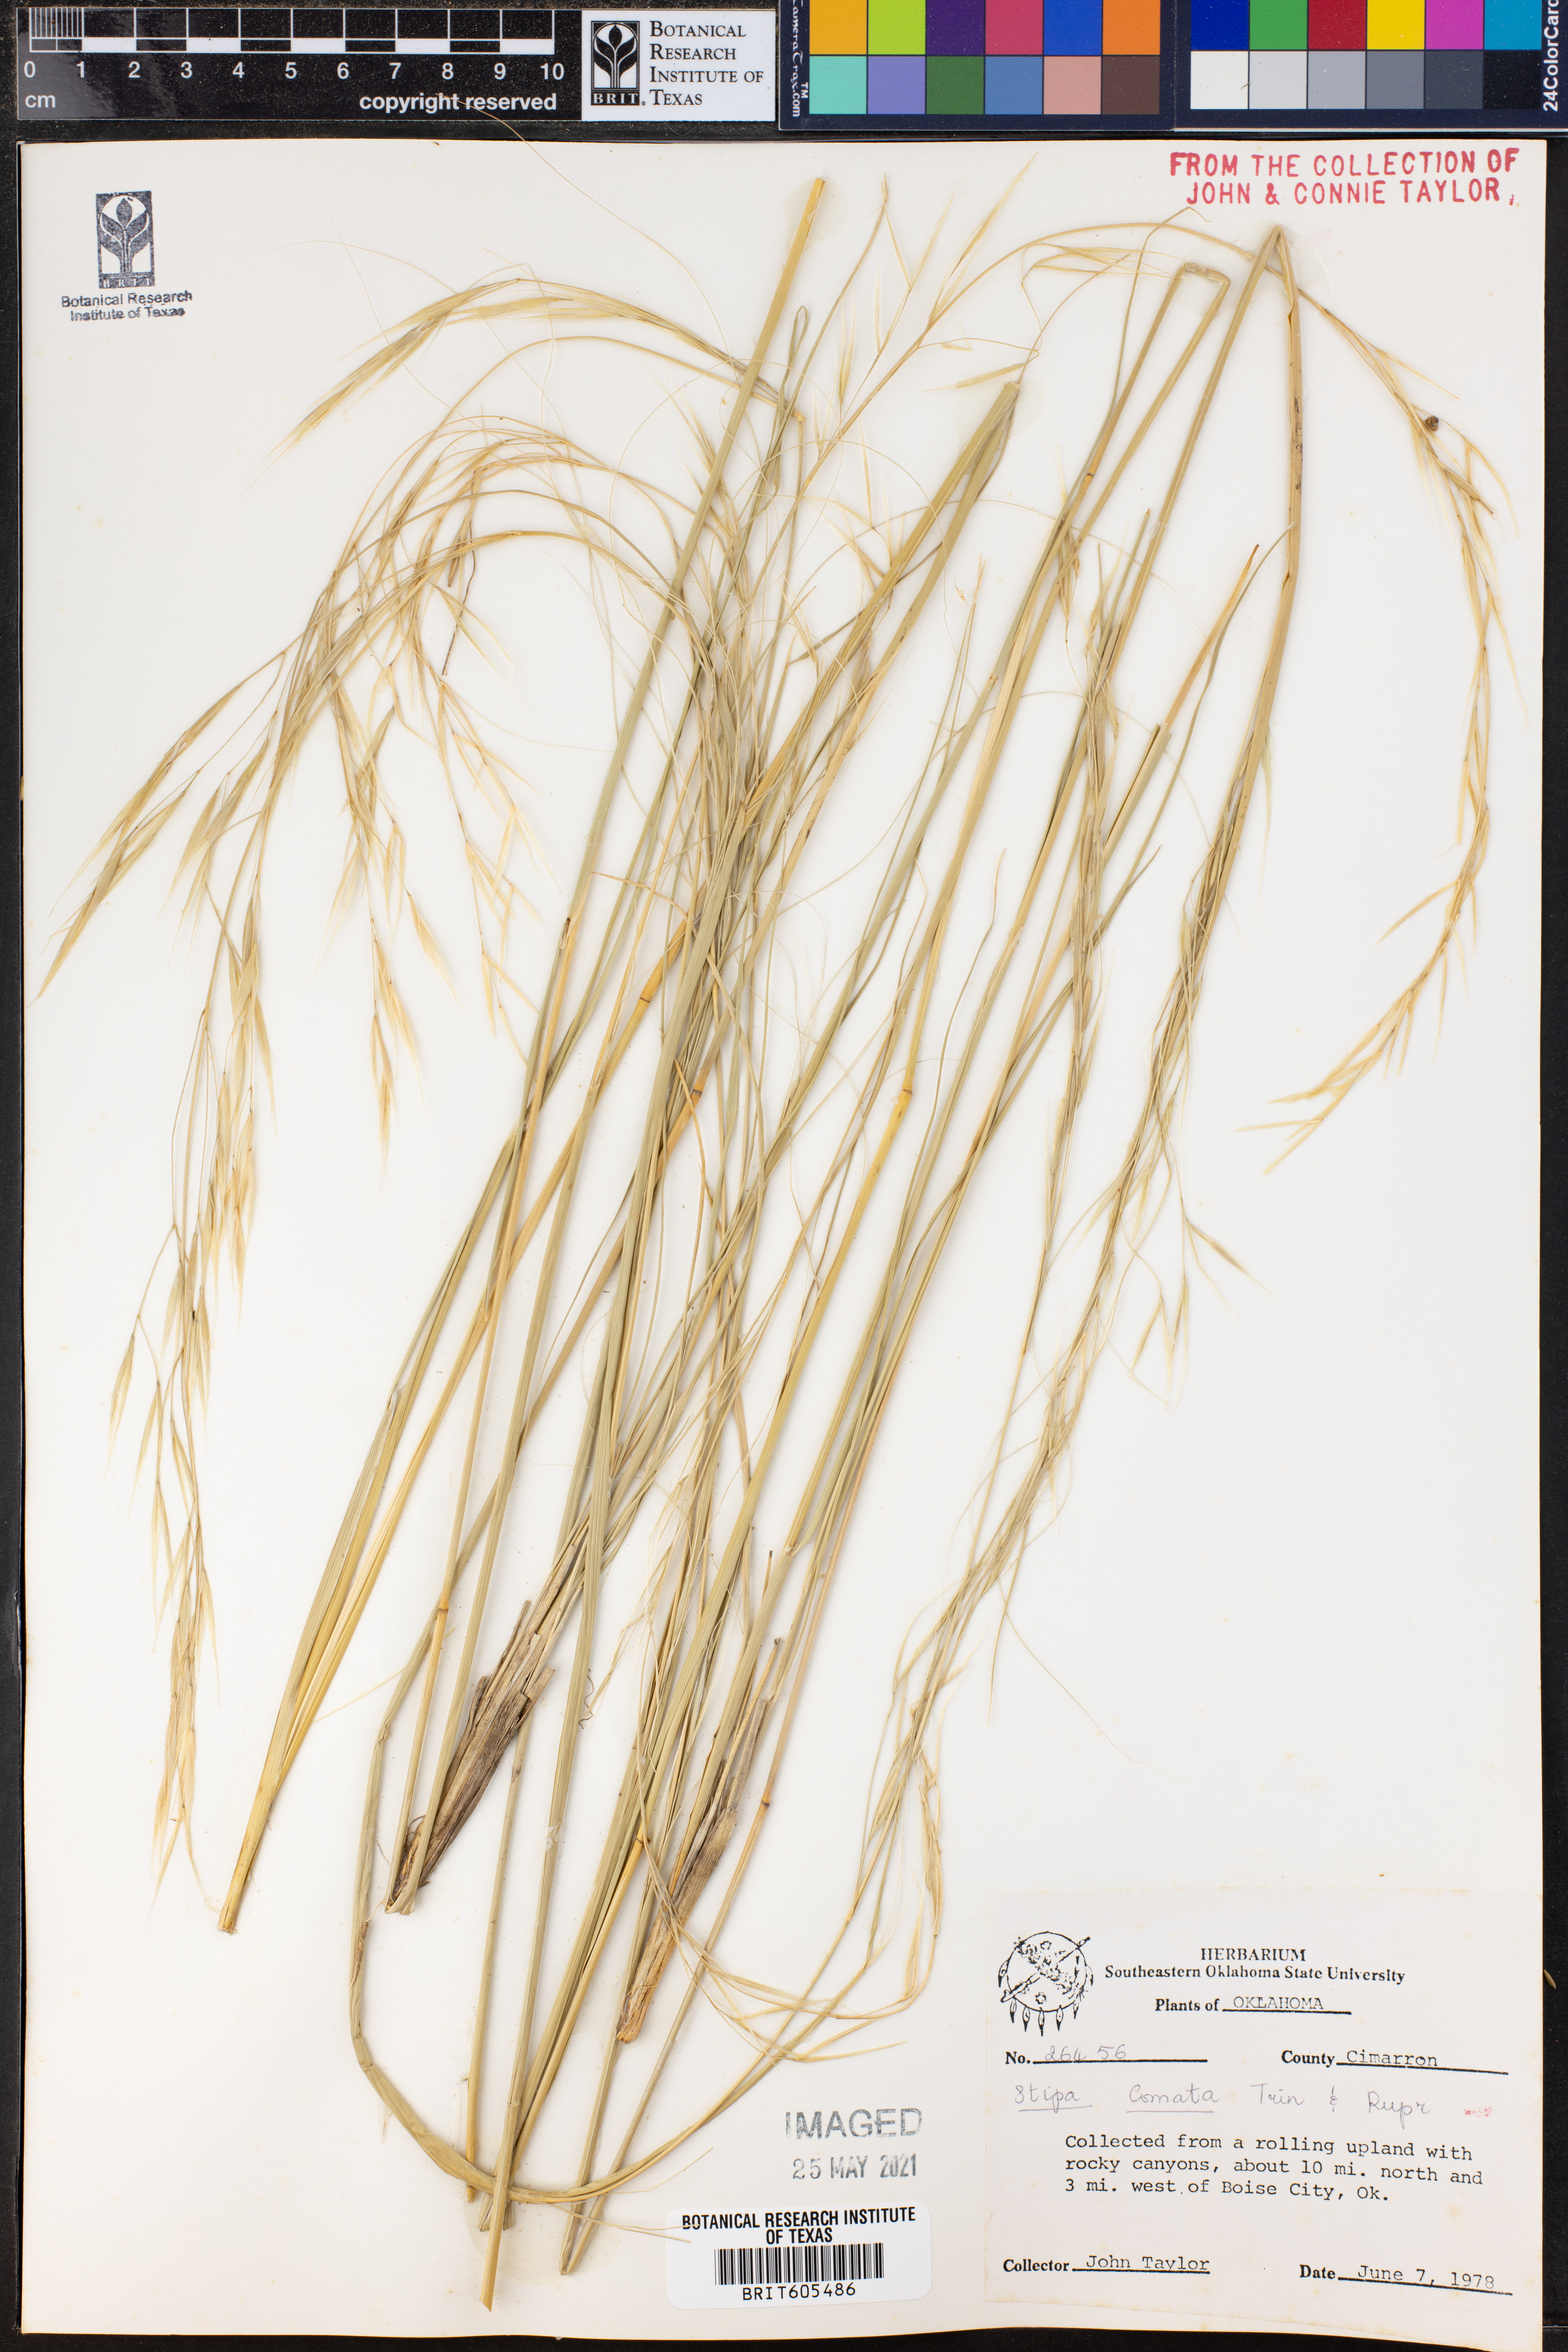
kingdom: Plantae
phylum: Tracheophyta
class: Liliopsida
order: Poales
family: Poaceae
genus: Hesperostipa
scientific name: Hesperostipa comata
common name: Needle-and-thread grass
